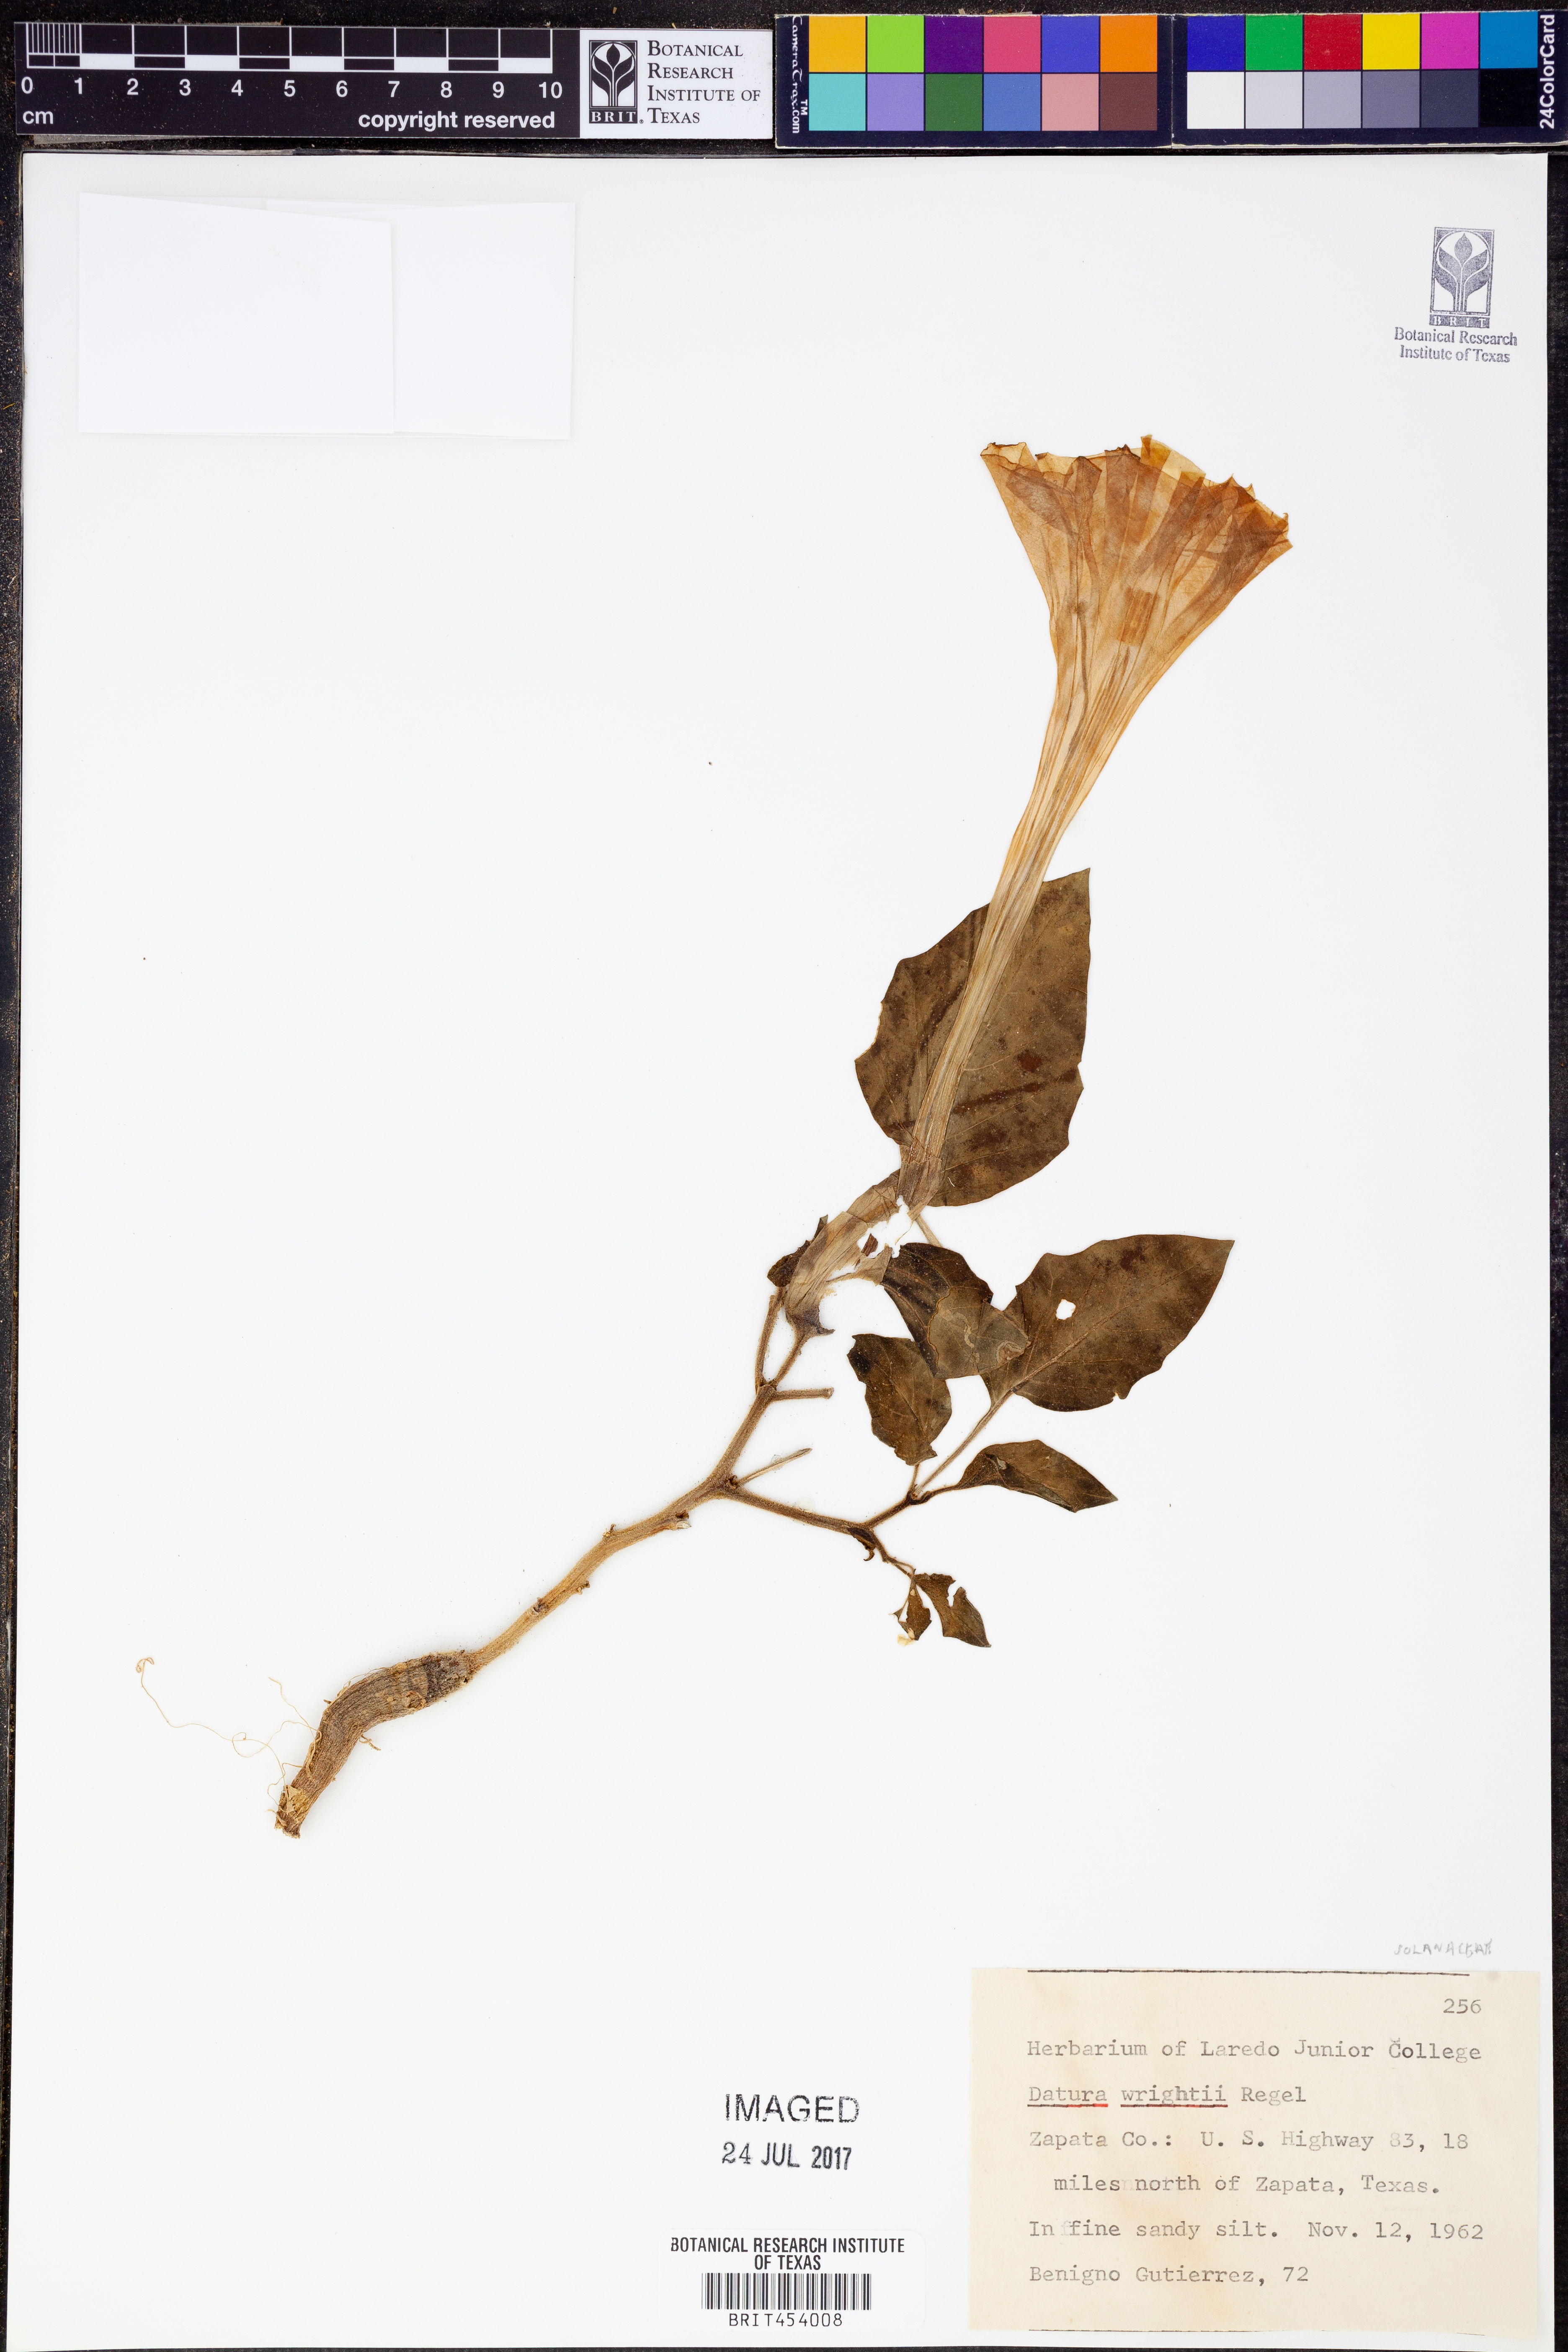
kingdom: Plantae
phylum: Tracheophyta
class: Magnoliopsida
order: Solanales
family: Solanaceae
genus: Datura
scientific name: Datura wrightii
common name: Sacred thorn-apple
